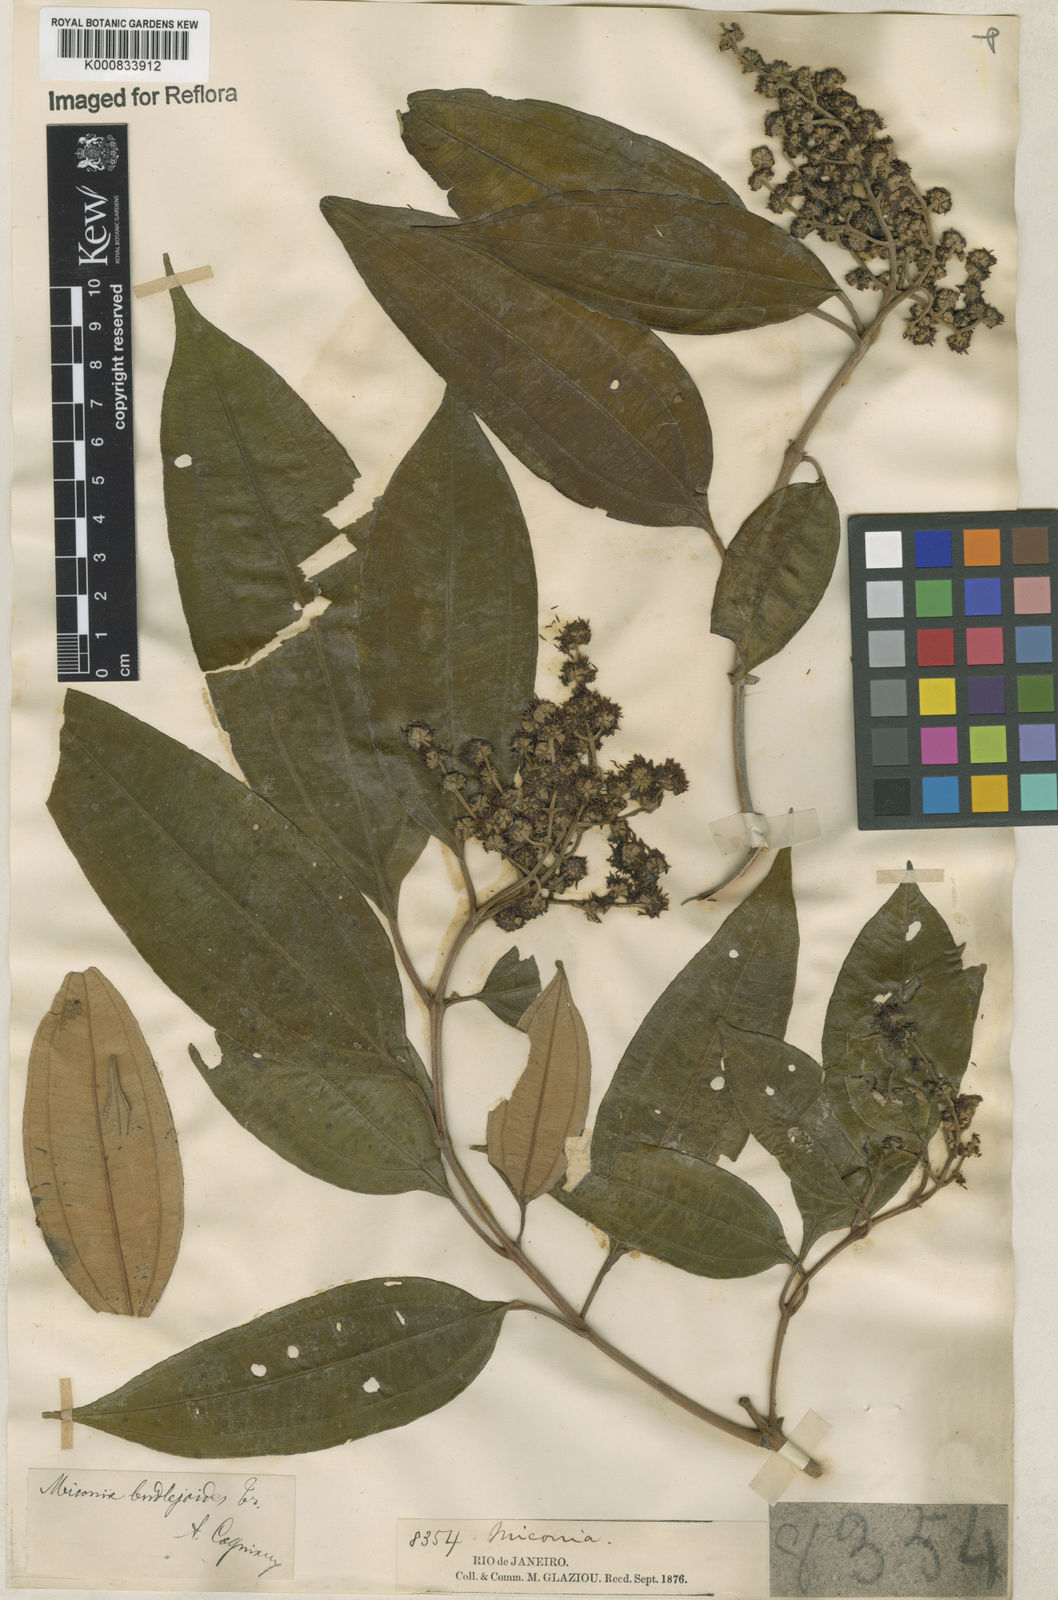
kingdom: Plantae
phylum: Tracheophyta
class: Magnoliopsida
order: Myrtales
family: Melastomataceae
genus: Miconia
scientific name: Miconia buddlejoides
